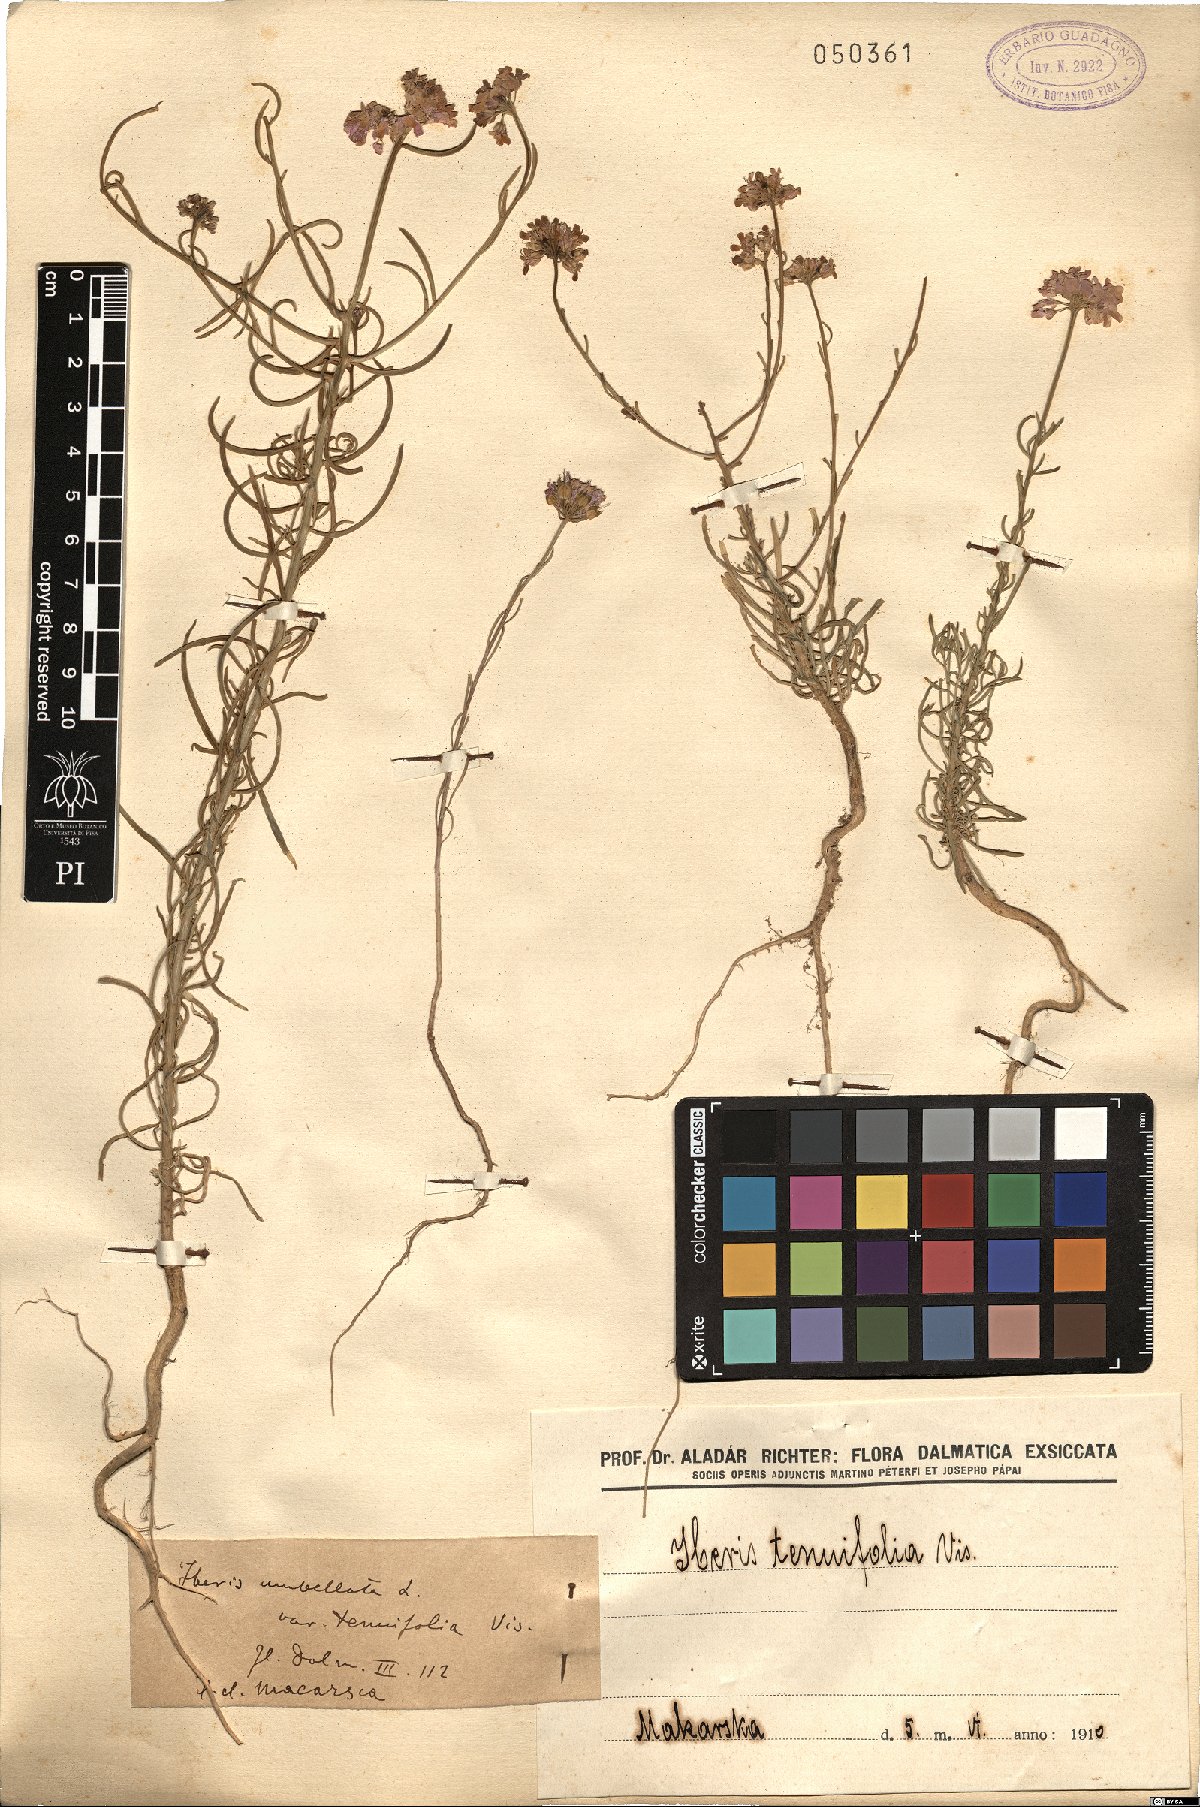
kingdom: Plantae
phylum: Tracheophyta
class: Magnoliopsida
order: Brassicales
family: Brassicaceae
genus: Iberis
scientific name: Iberis umbellata
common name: Globe candytuft
